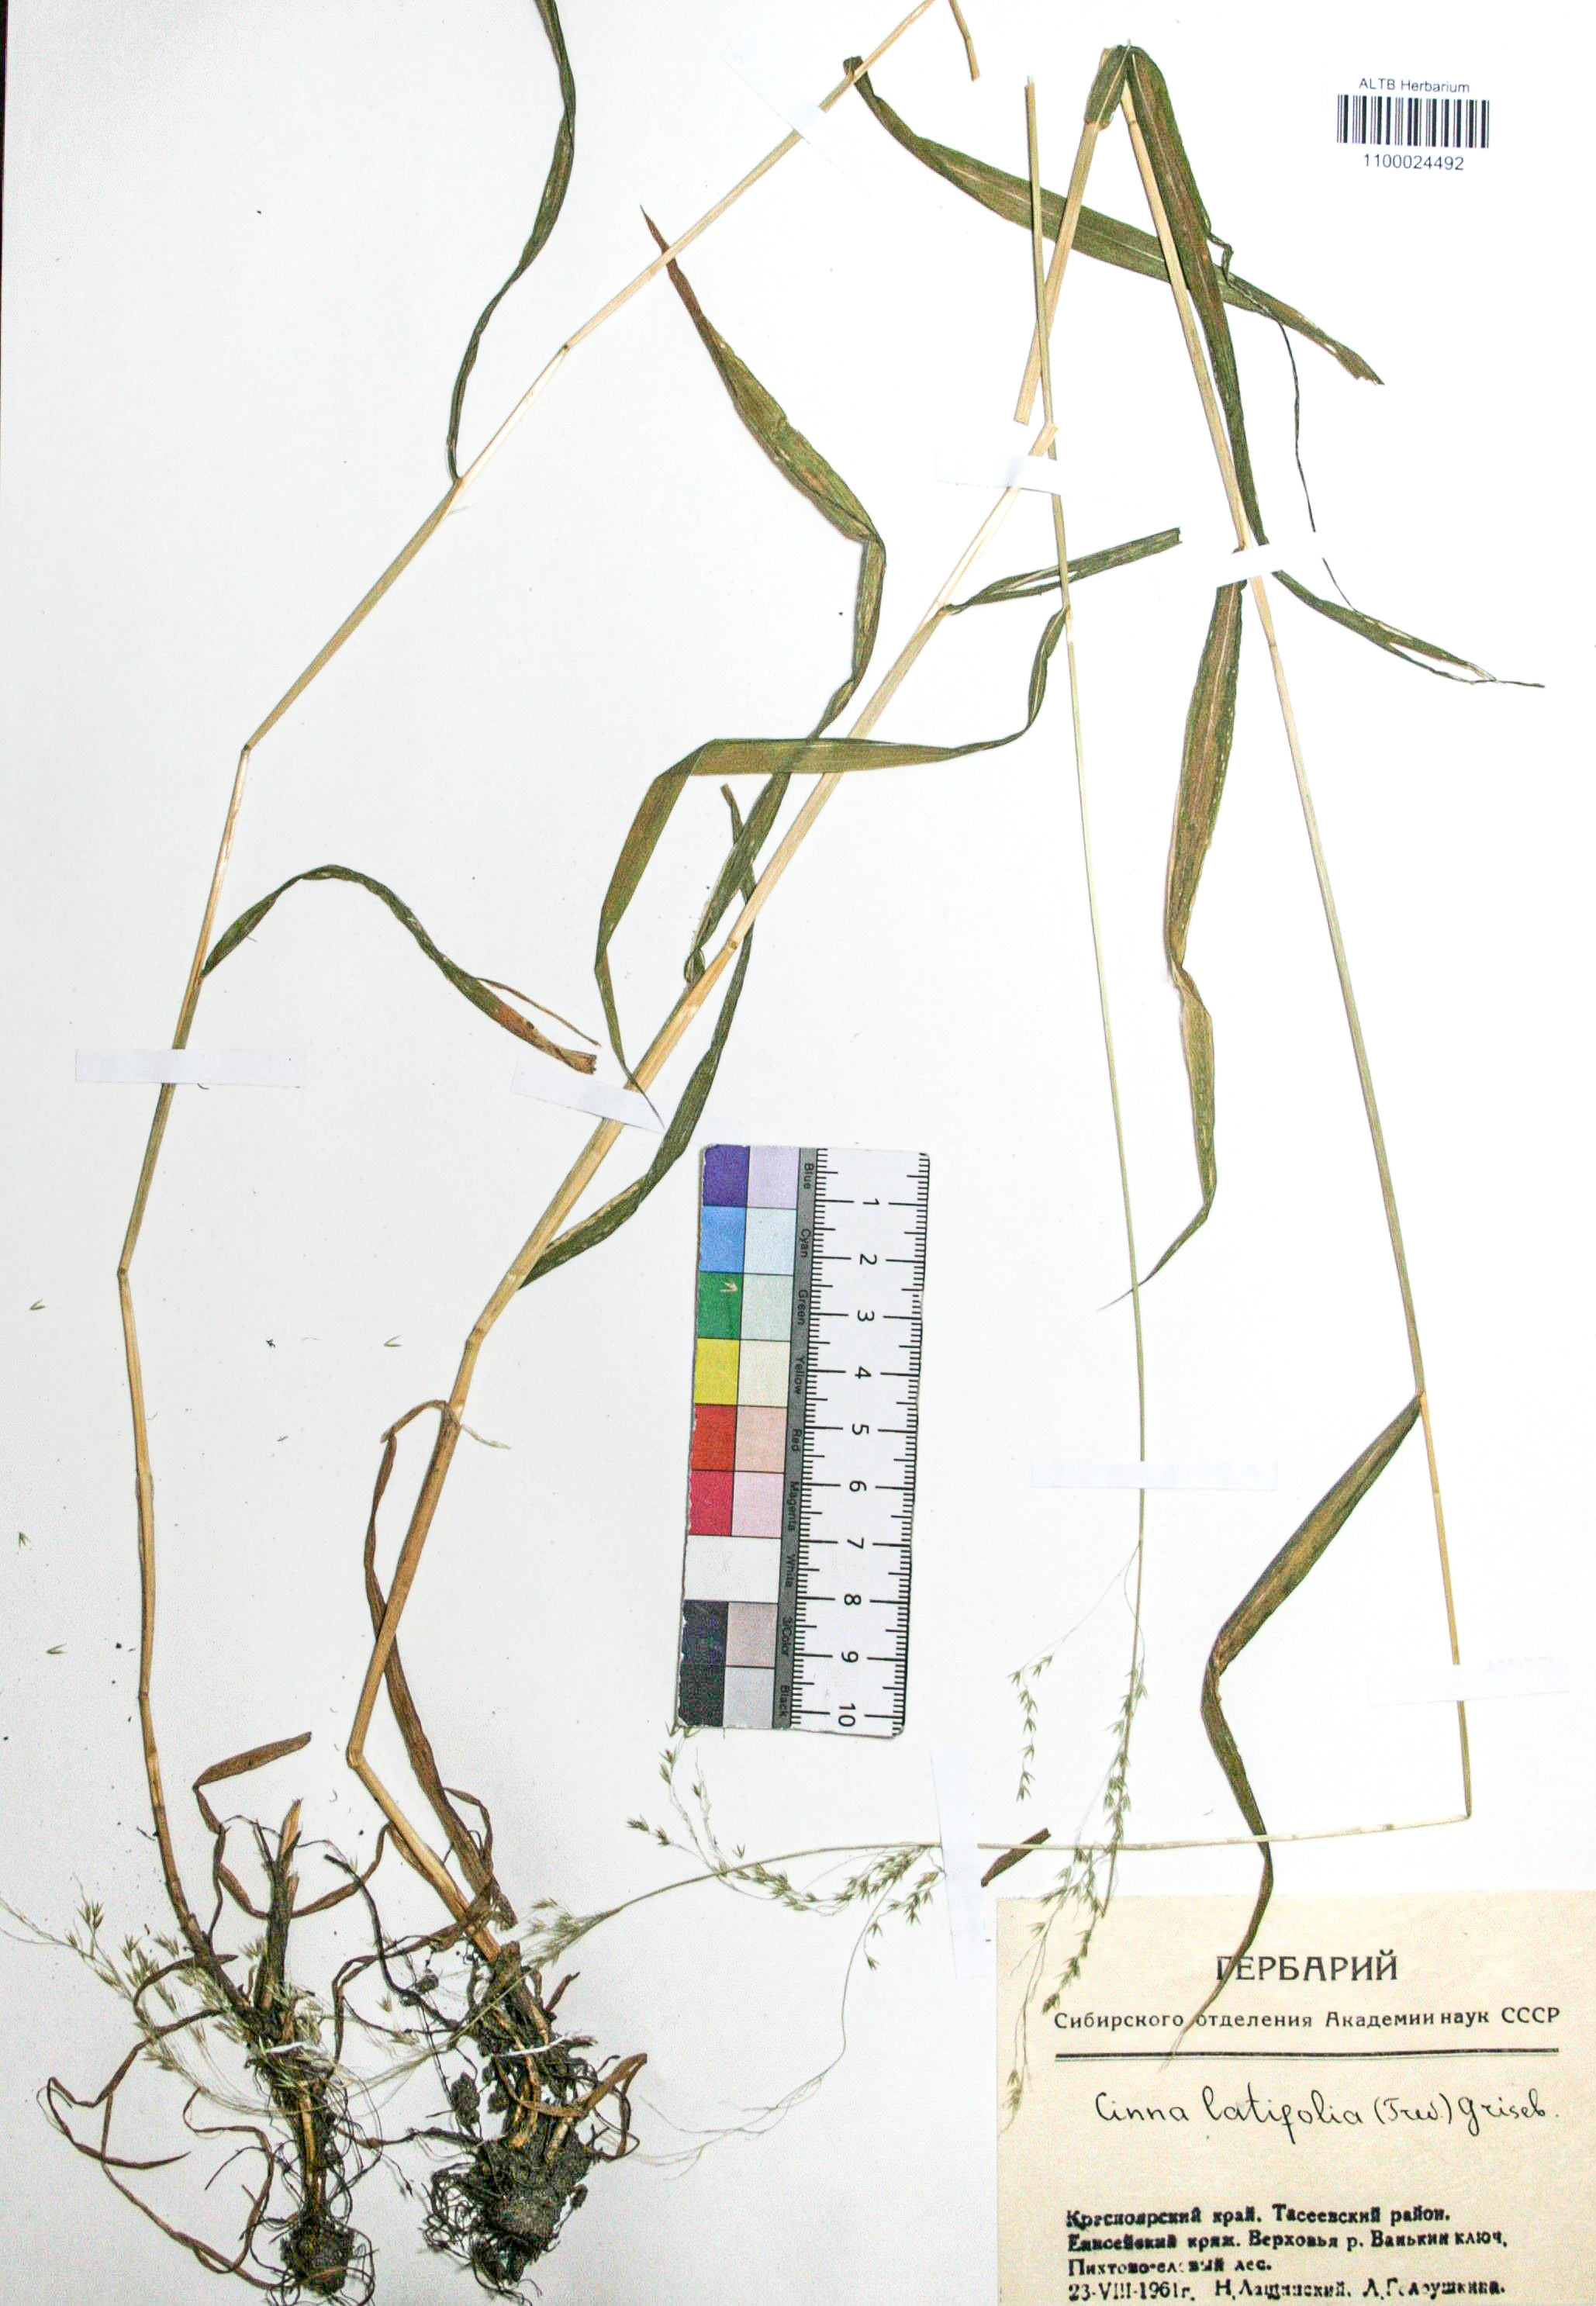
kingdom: Plantae
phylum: Tracheophyta
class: Liliopsida
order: Poales
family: Poaceae
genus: Cinna
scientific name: Cinna latifolia
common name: Drooping woodreed
